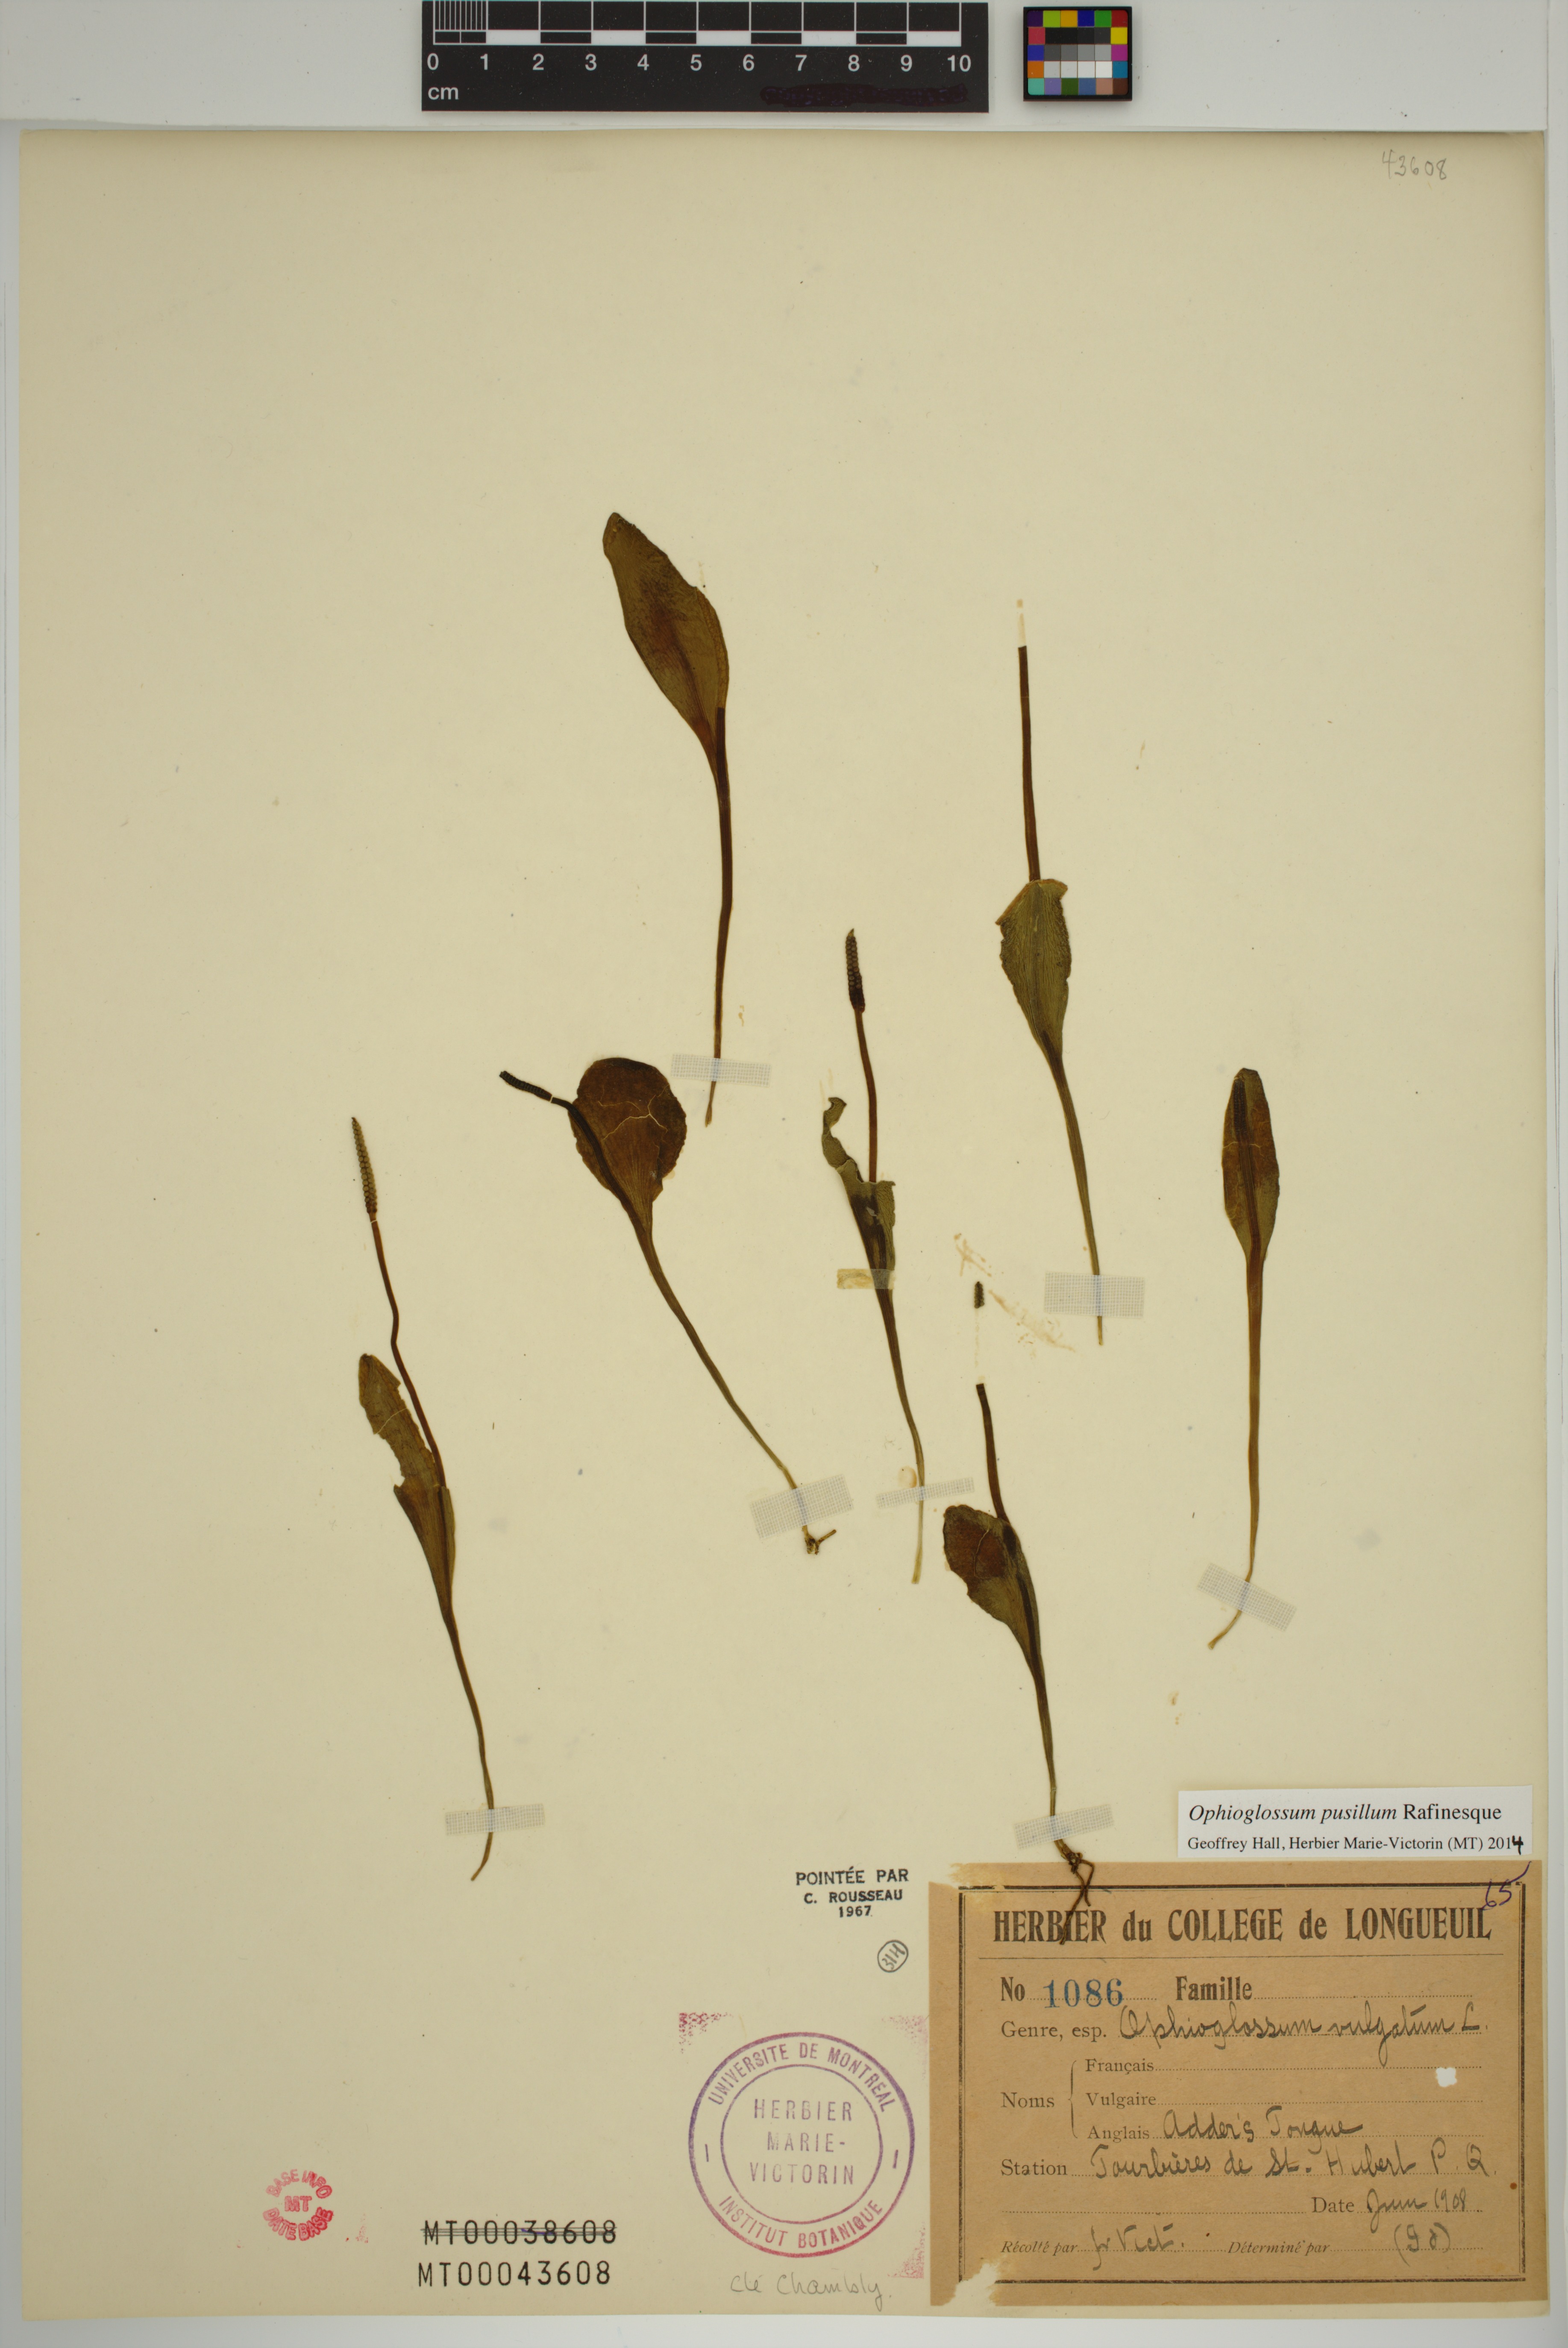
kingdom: Plantae
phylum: Tracheophyta
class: Polypodiopsida
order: Ophioglossales
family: Ophioglossaceae
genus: Ophioglossum
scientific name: Ophioglossum pusillum
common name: Northern adder's-tongue
